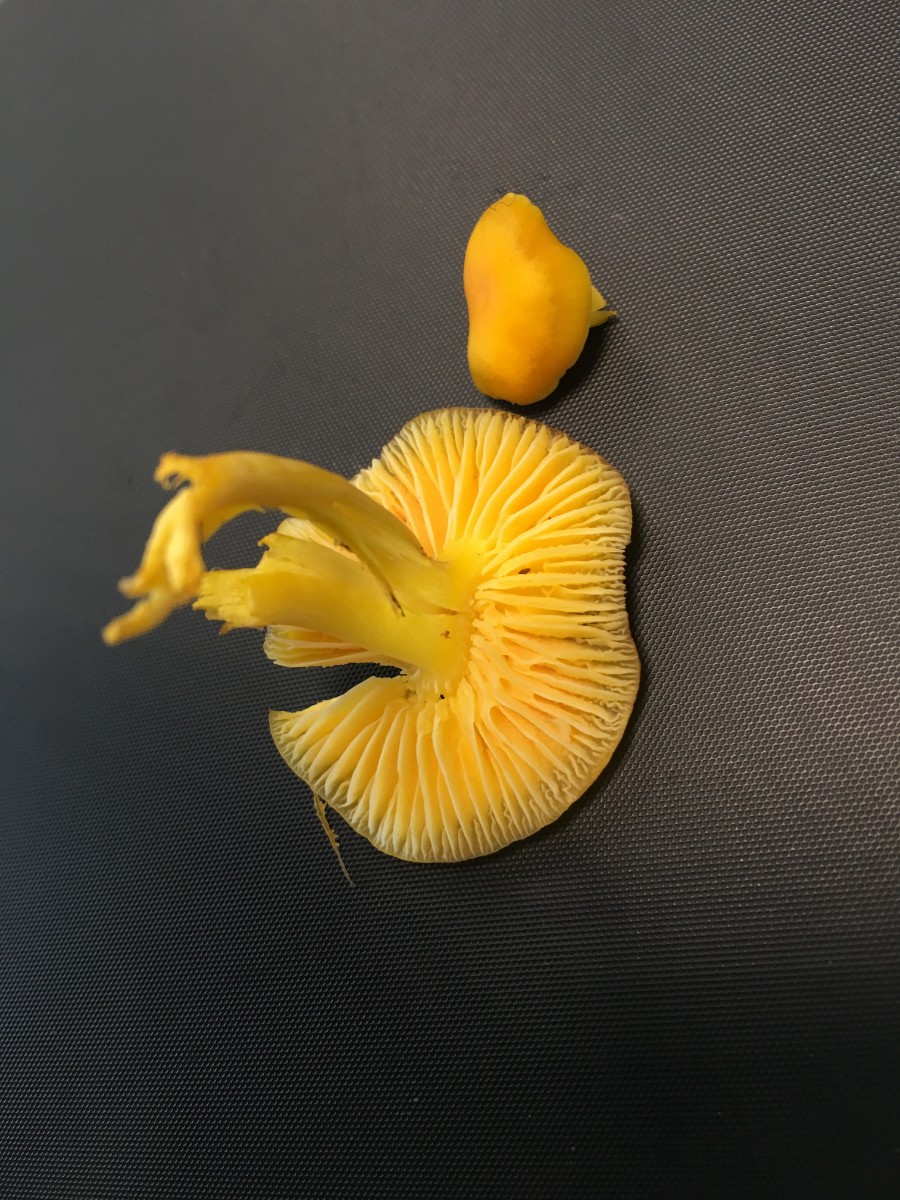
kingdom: Fungi
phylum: Basidiomycota
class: Agaricomycetes
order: Agaricales
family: Hygrophoraceae
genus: Hygrocybe
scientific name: Hygrocybe ceracea
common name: voksgul vokshat
